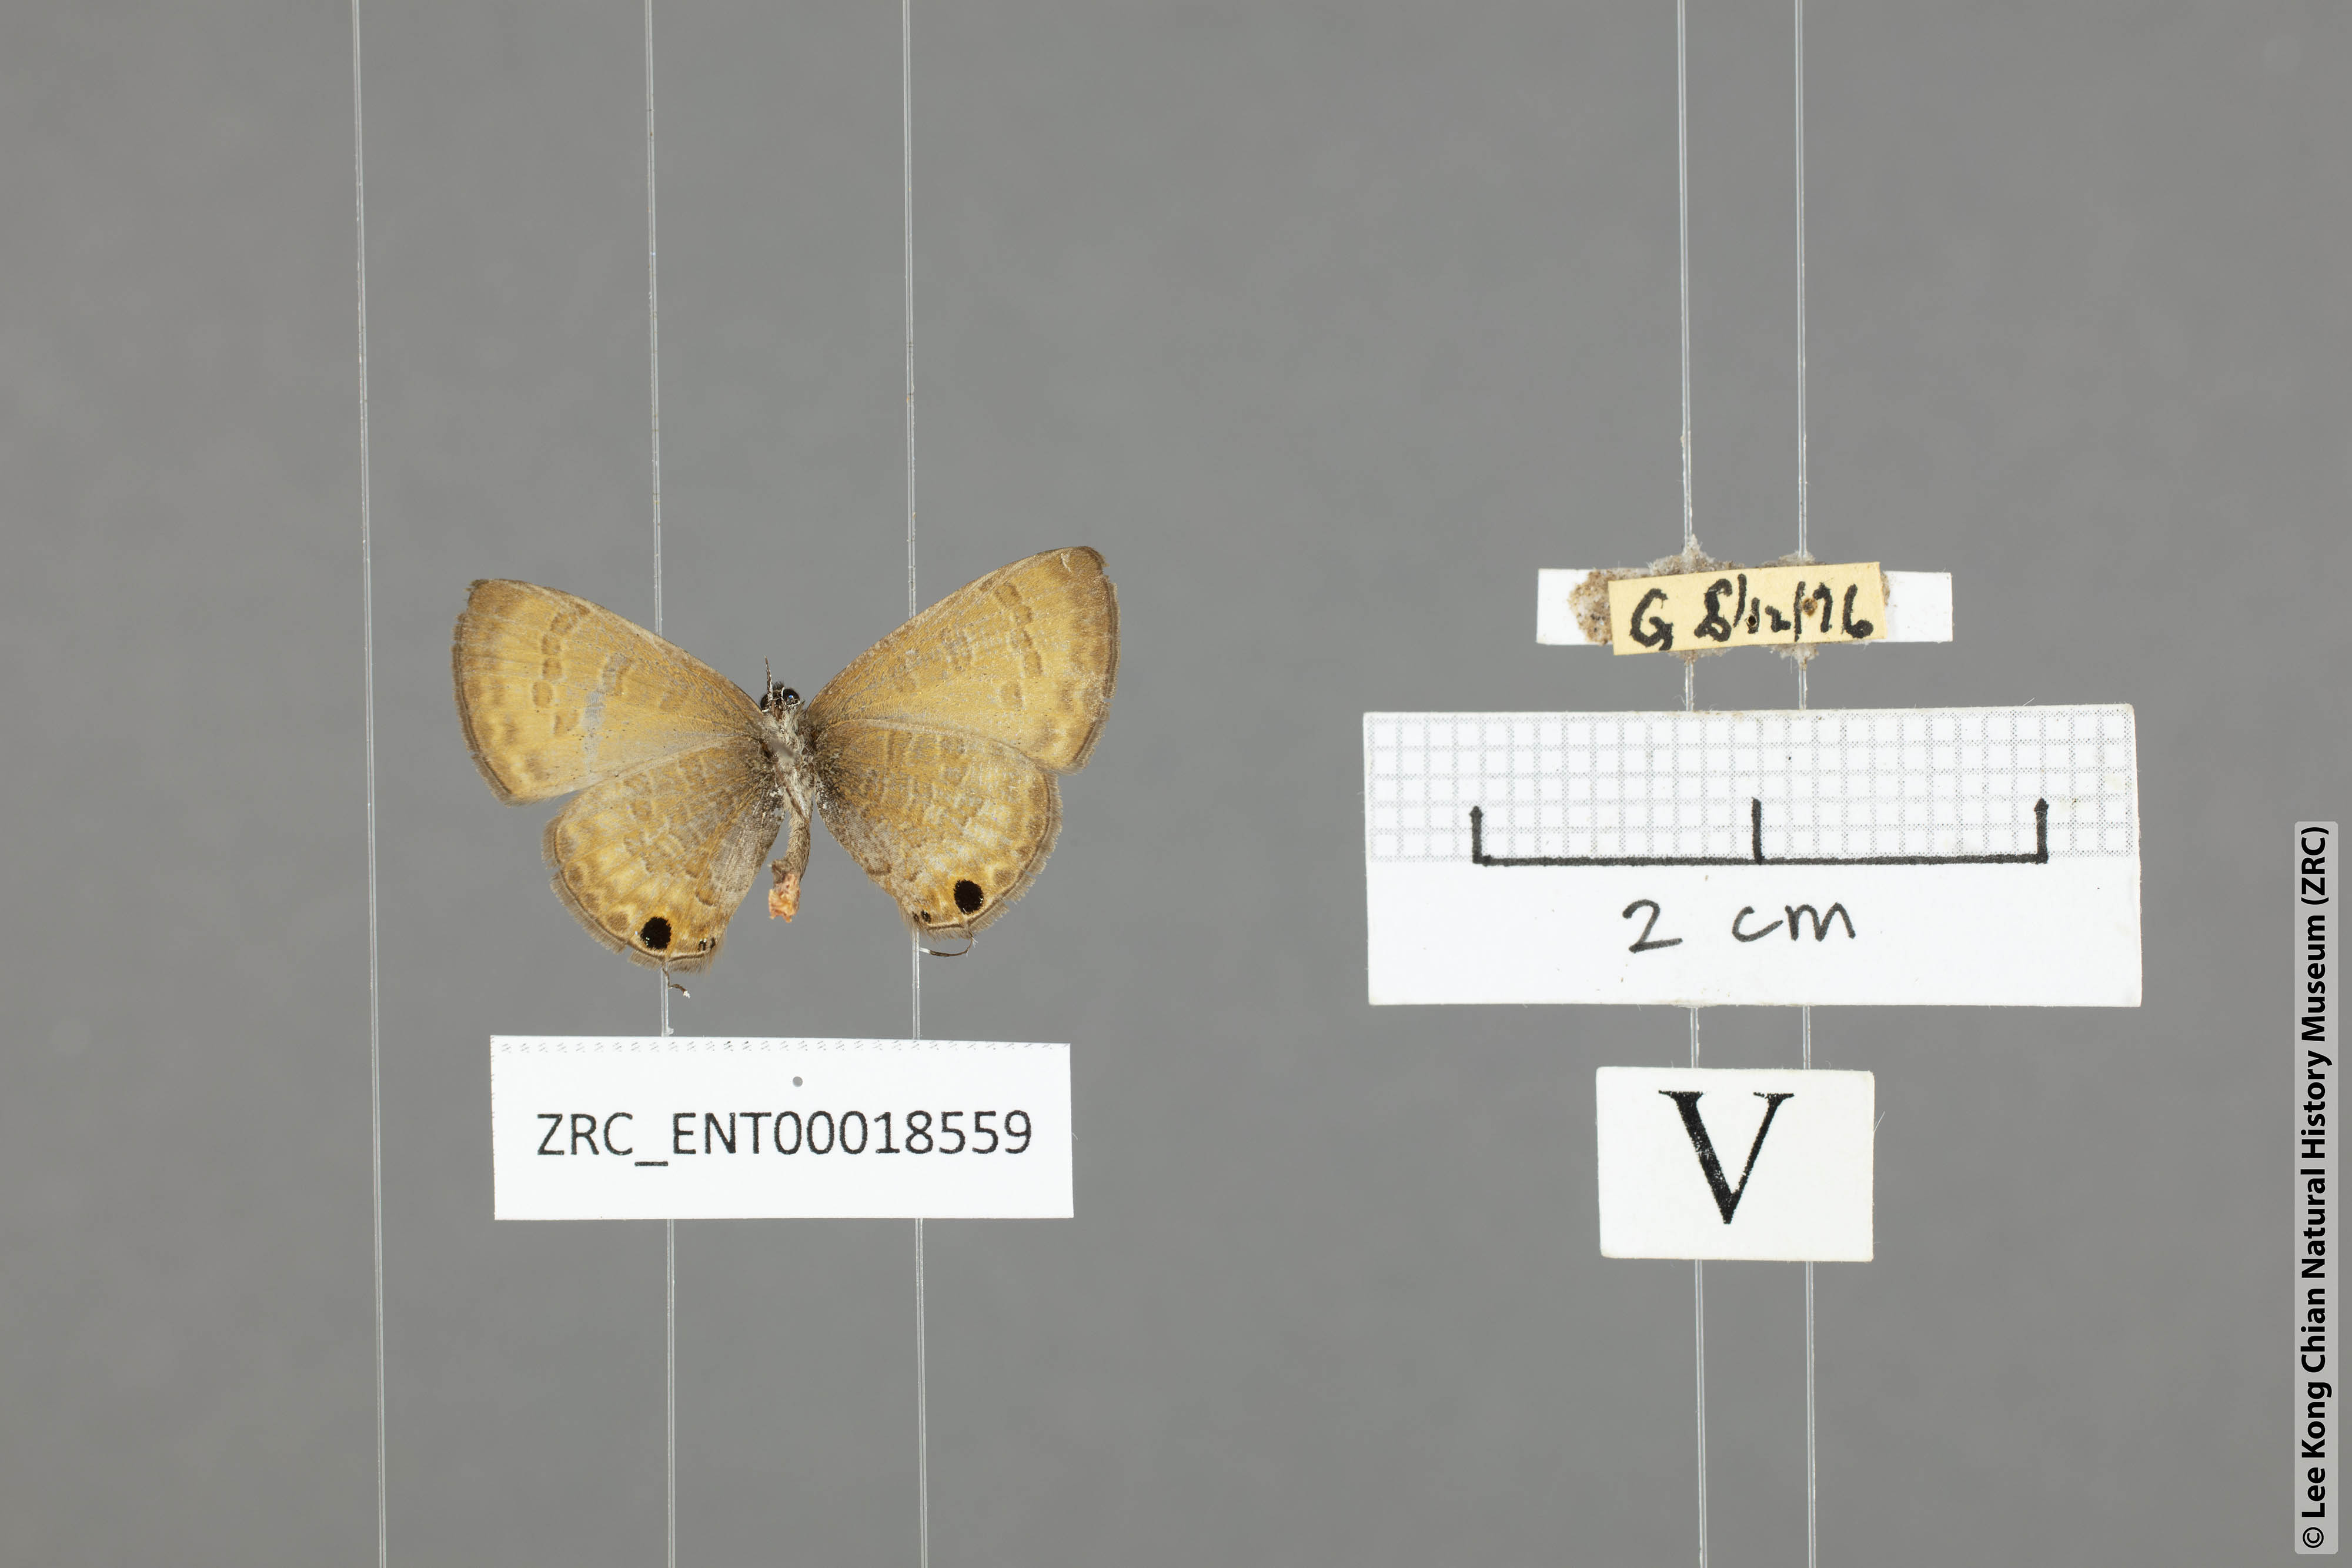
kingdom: Animalia
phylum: Arthropoda
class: Insecta
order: Lepidoptera
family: Lycaenidae
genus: Prosotas
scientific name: Prosotas bhutea
